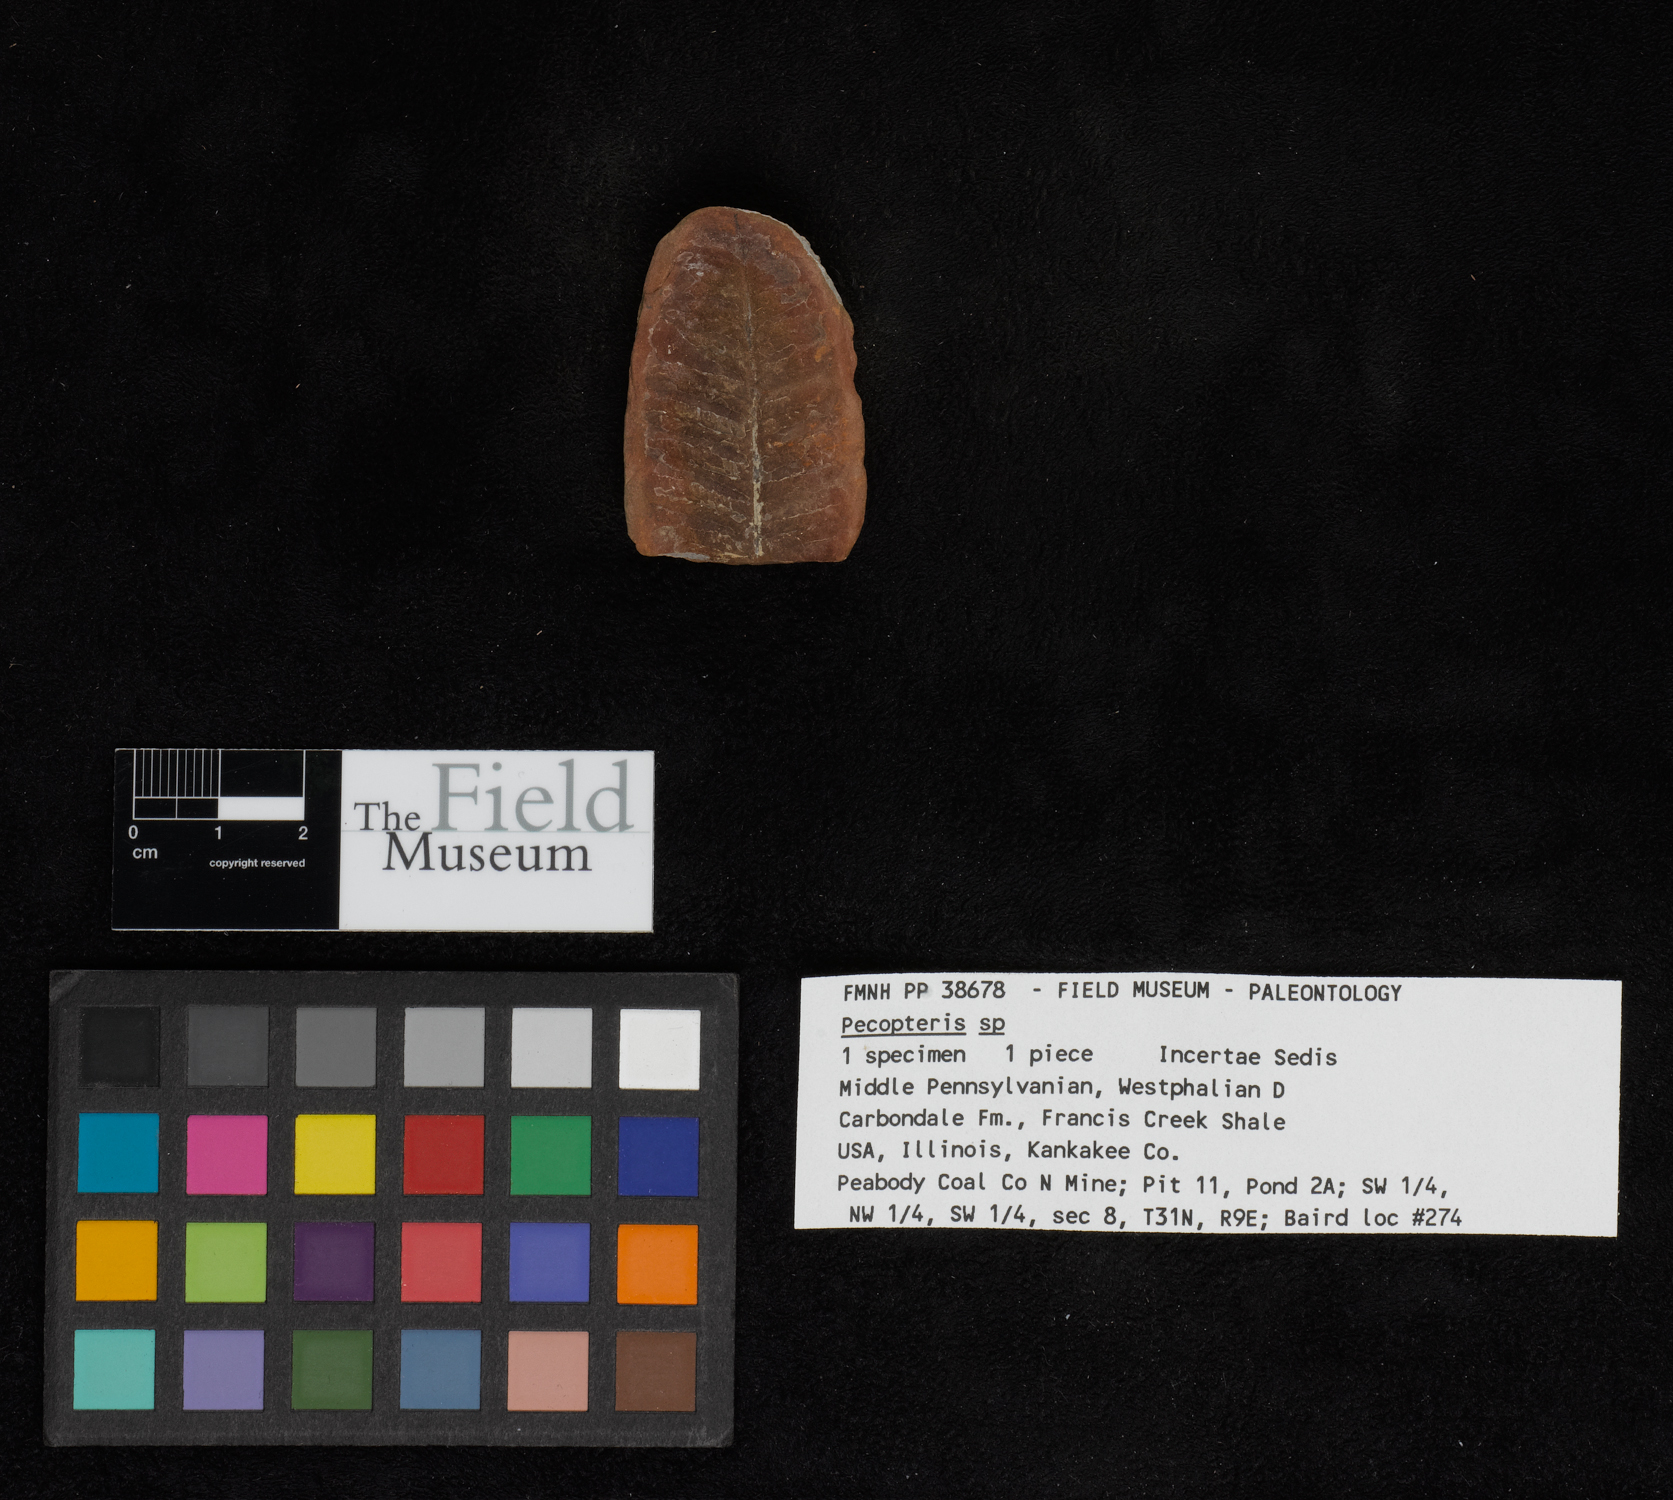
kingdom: Plantae
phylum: Tracheophyta
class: Polypodiopsida
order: Marattiales
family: Asterothecaceae
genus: Pecopteris
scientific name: Pecopteris
